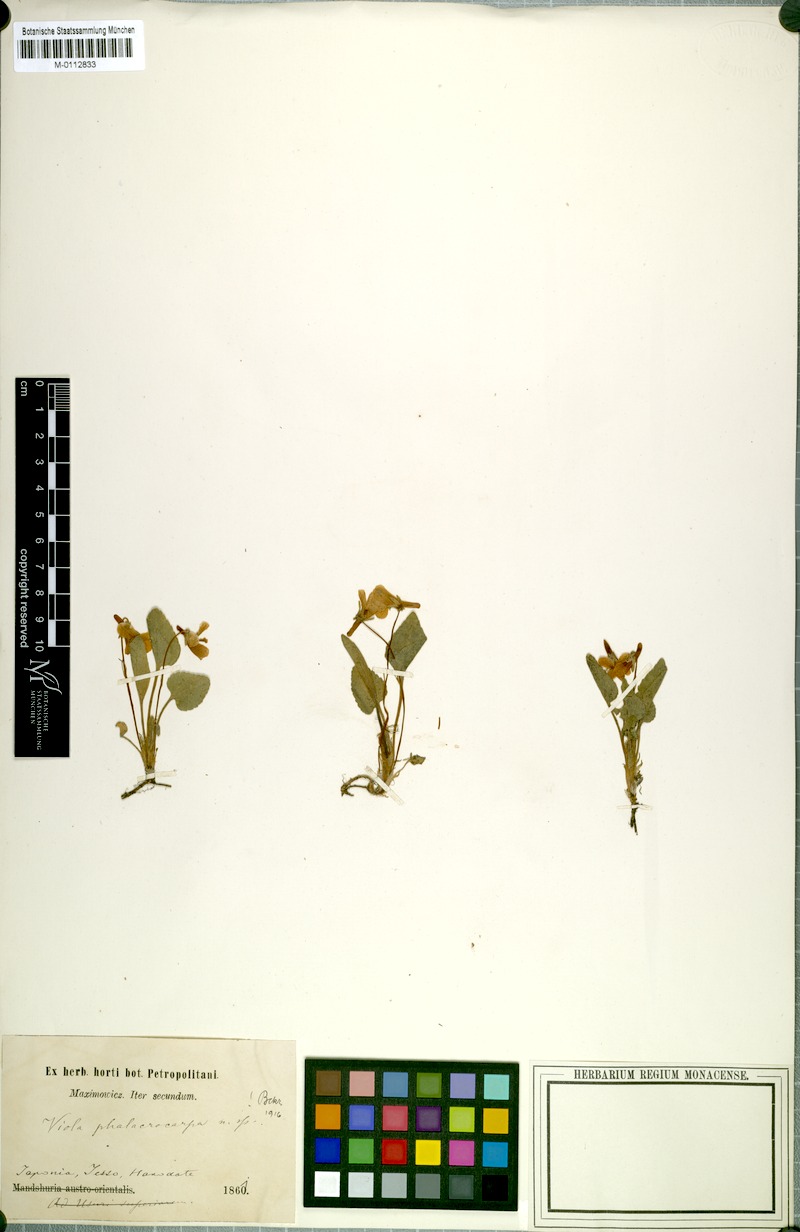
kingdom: Plantae
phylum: Tracheophyta
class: Magnoliopsida
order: Malpighiales
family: Violaceae
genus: Viola
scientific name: Viola phalacrocarpa
